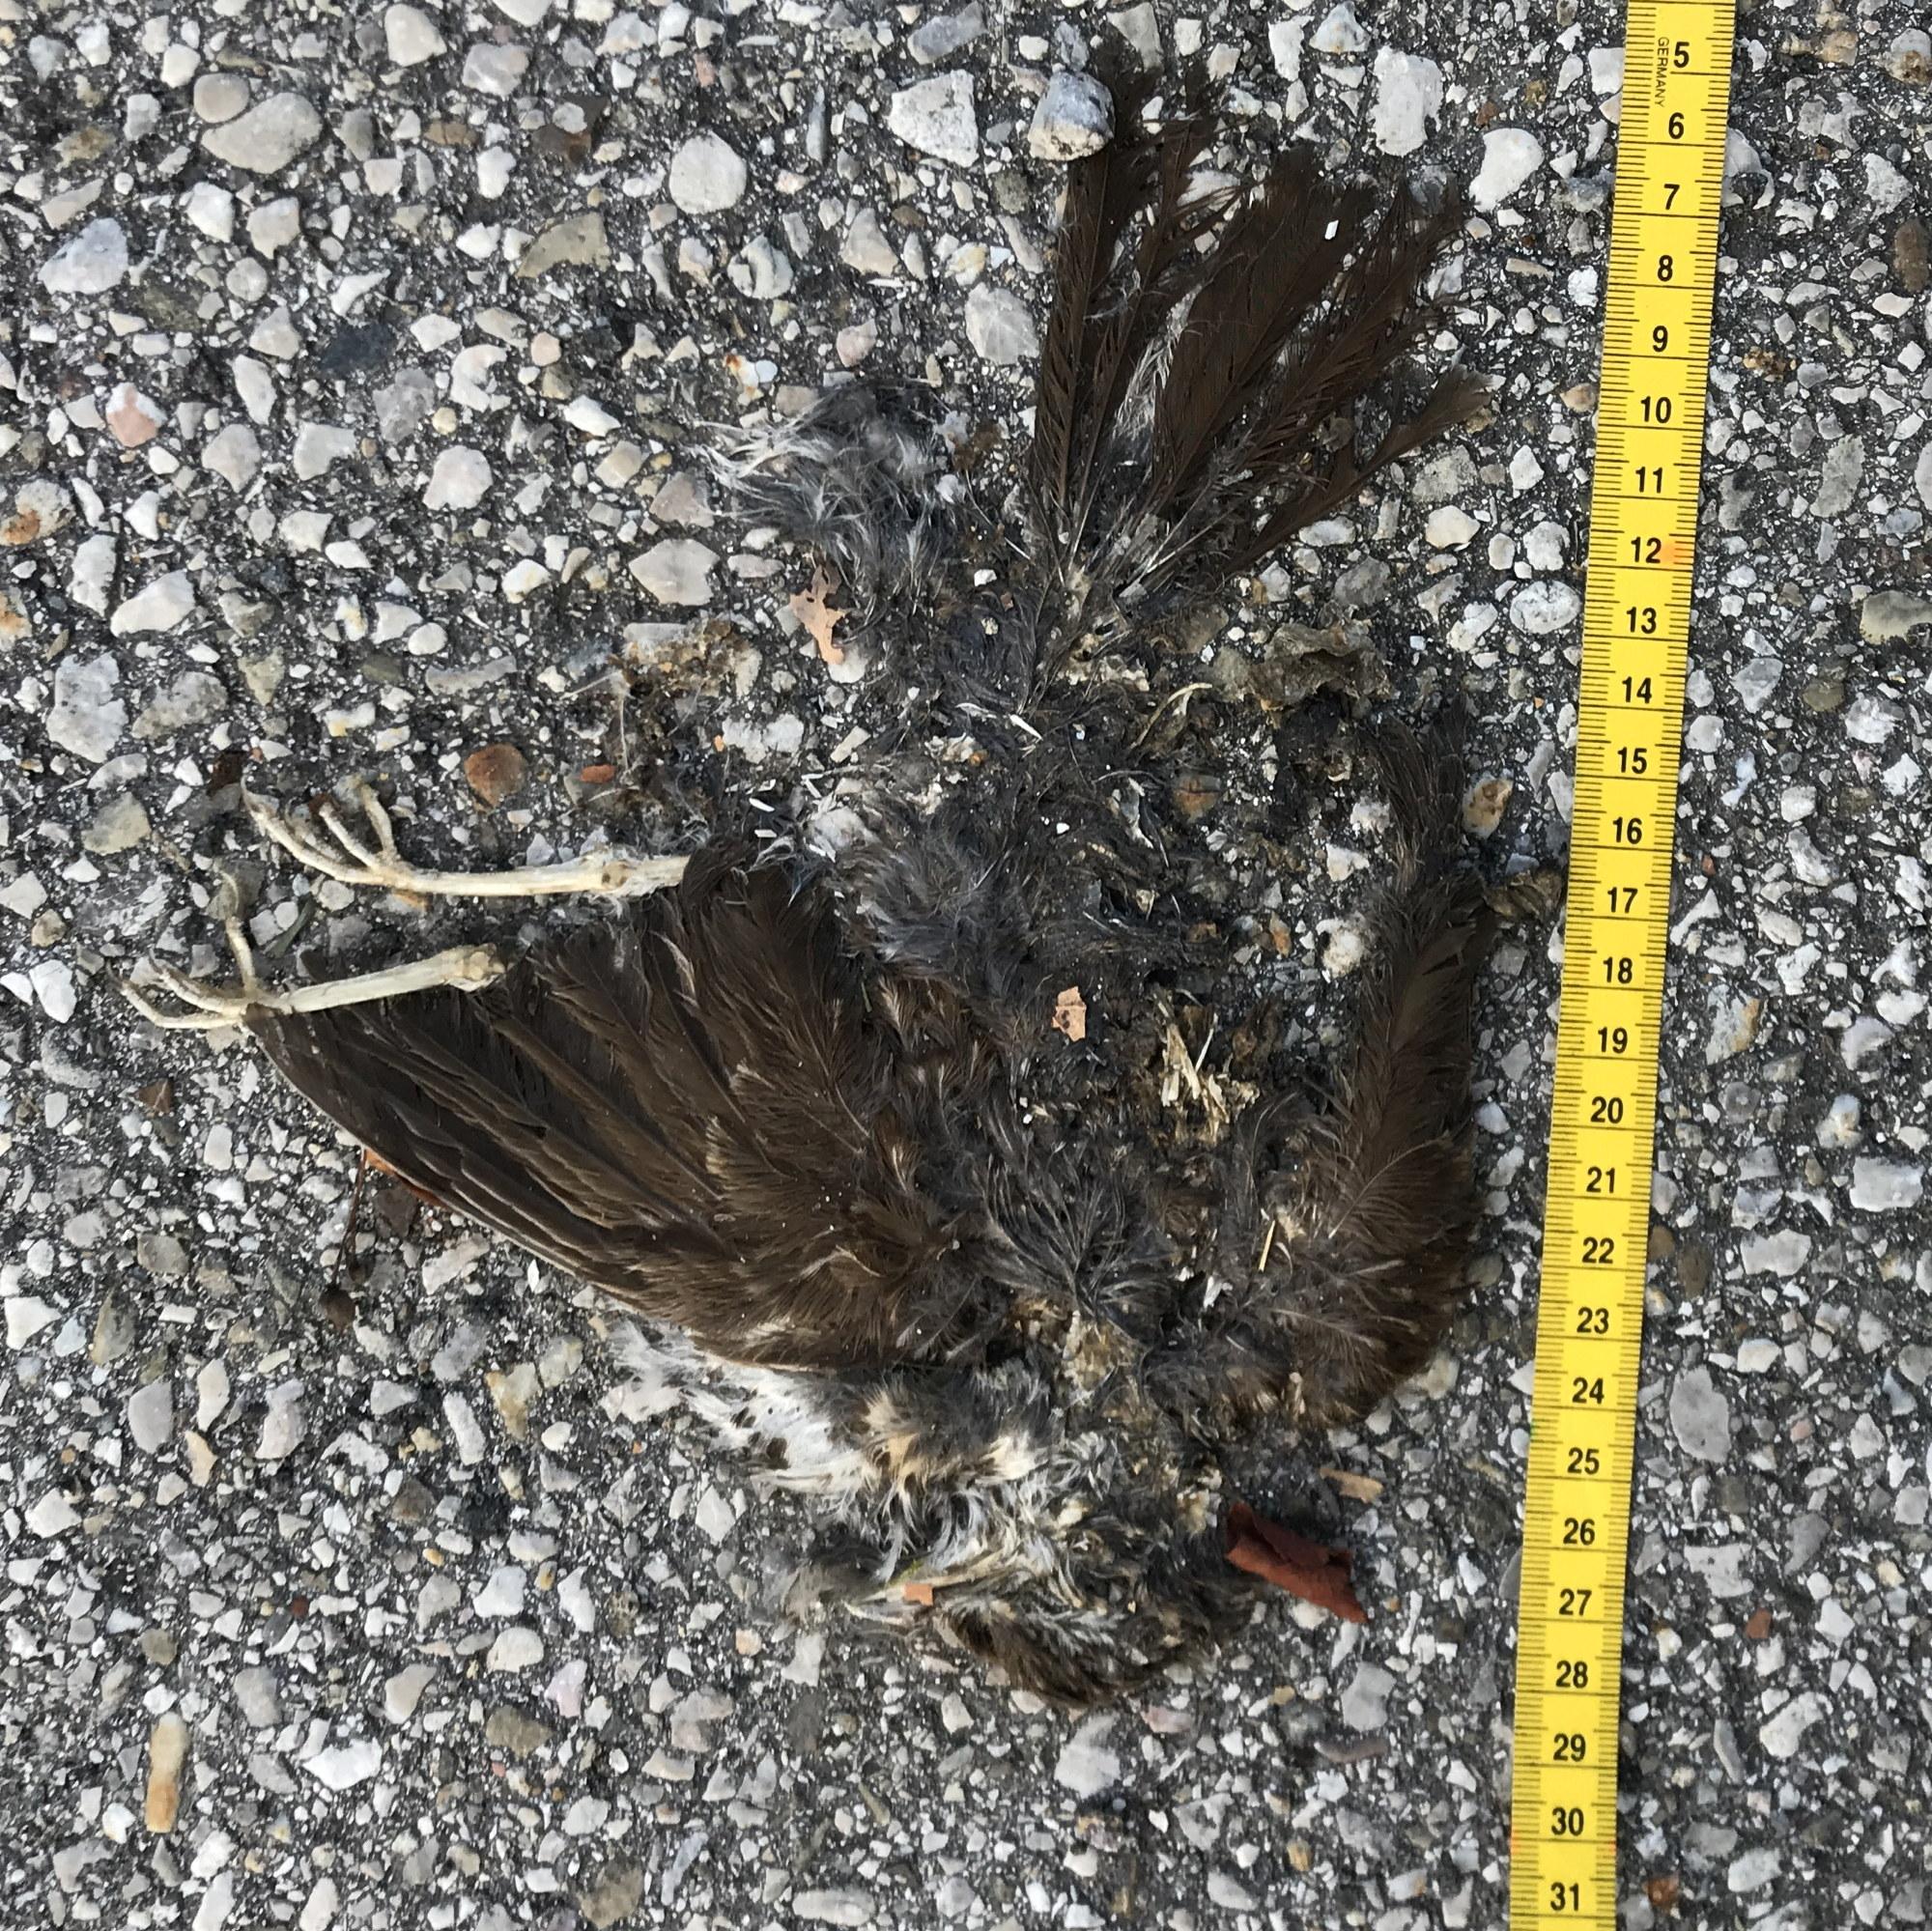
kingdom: Animalia
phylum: Chordata
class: Aves
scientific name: Aves
